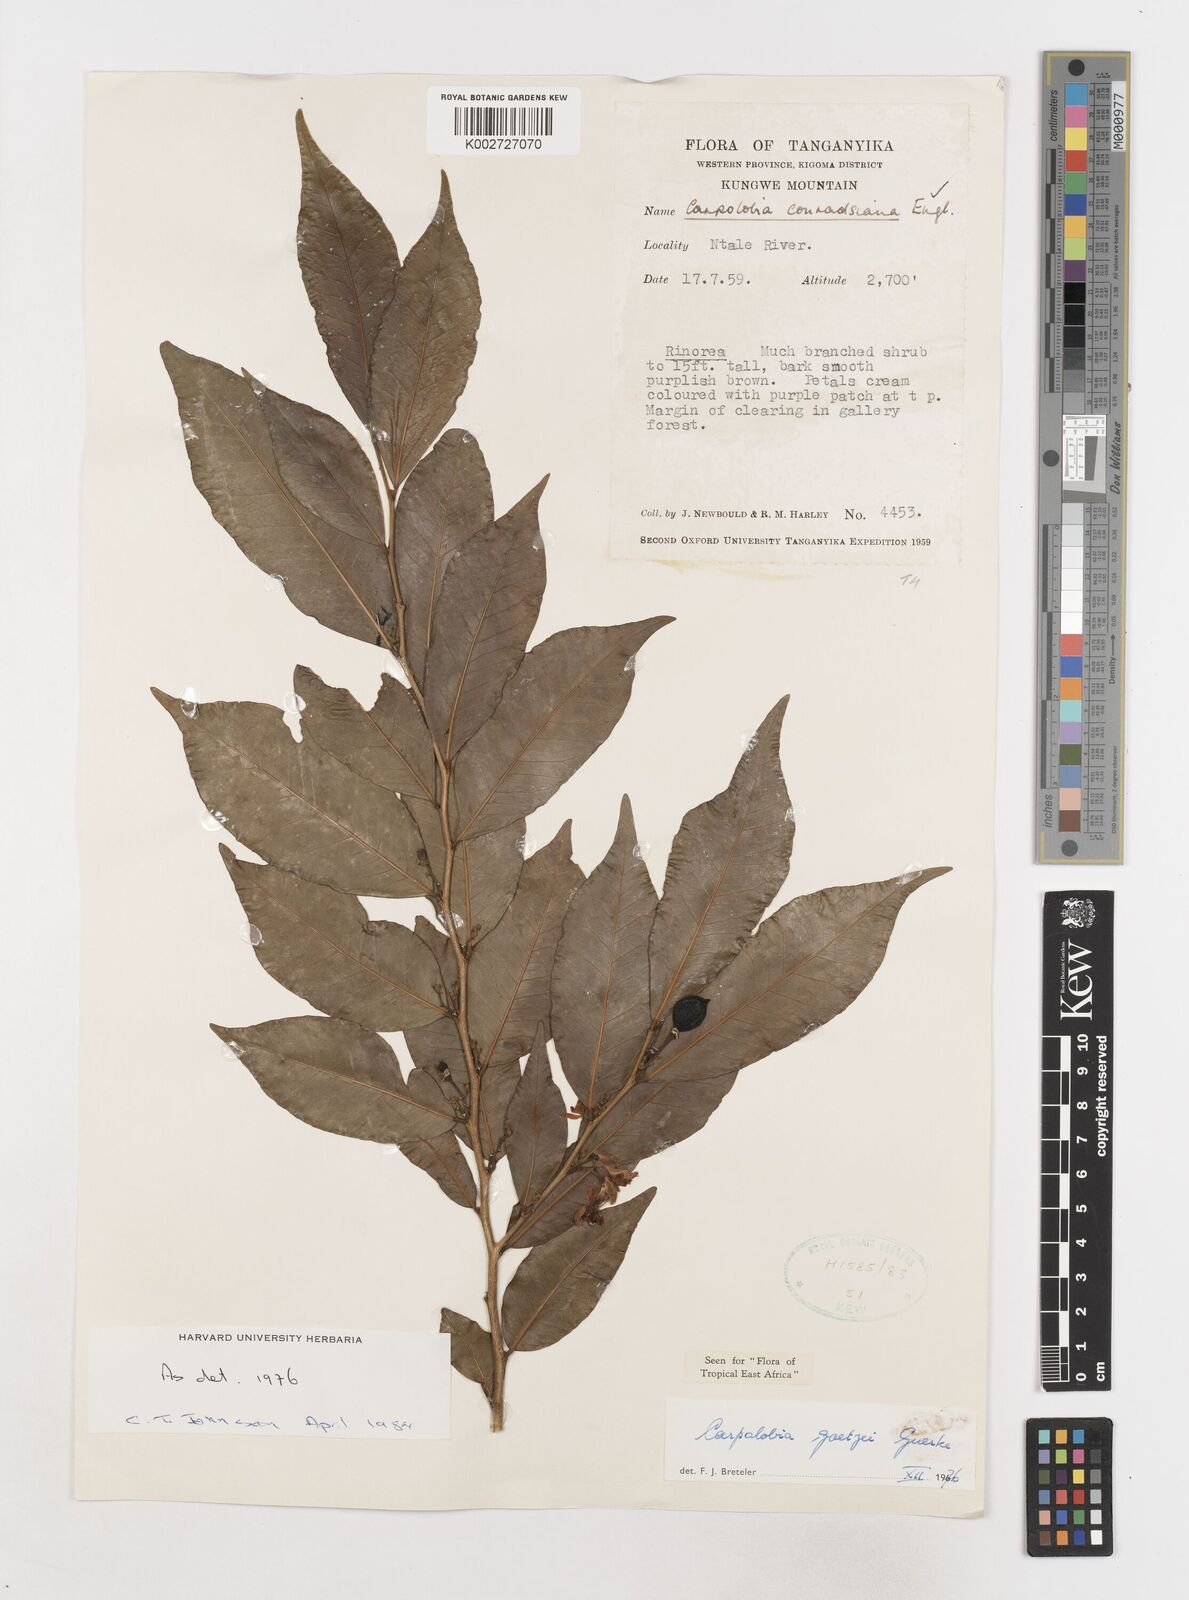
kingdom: Plantae
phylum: Tracheophyta
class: Magnoliopsida
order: Fabales
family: Polygalaceae
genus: Carpolobia
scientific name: Carpolobia goetzei
